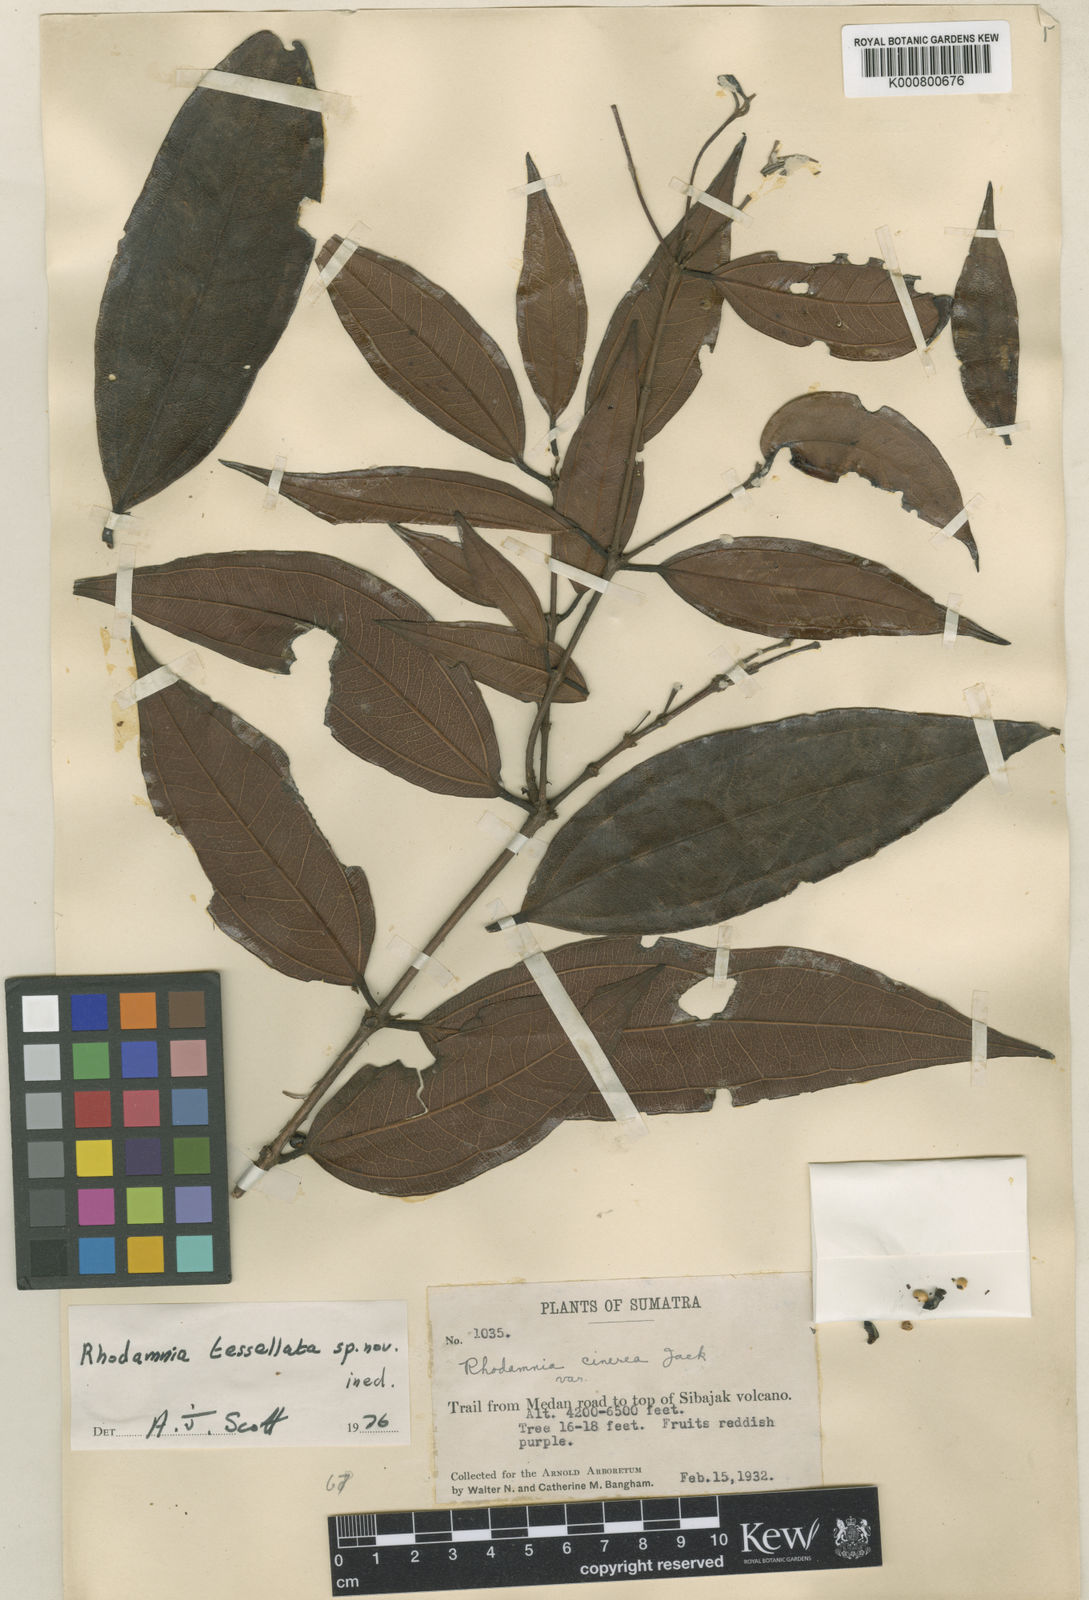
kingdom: Plantae
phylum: Tracheophyta
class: Magnoliopsida
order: Myrtales
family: Myrtaceae
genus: Rhodamnia
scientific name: Rhodamnia tessellata
